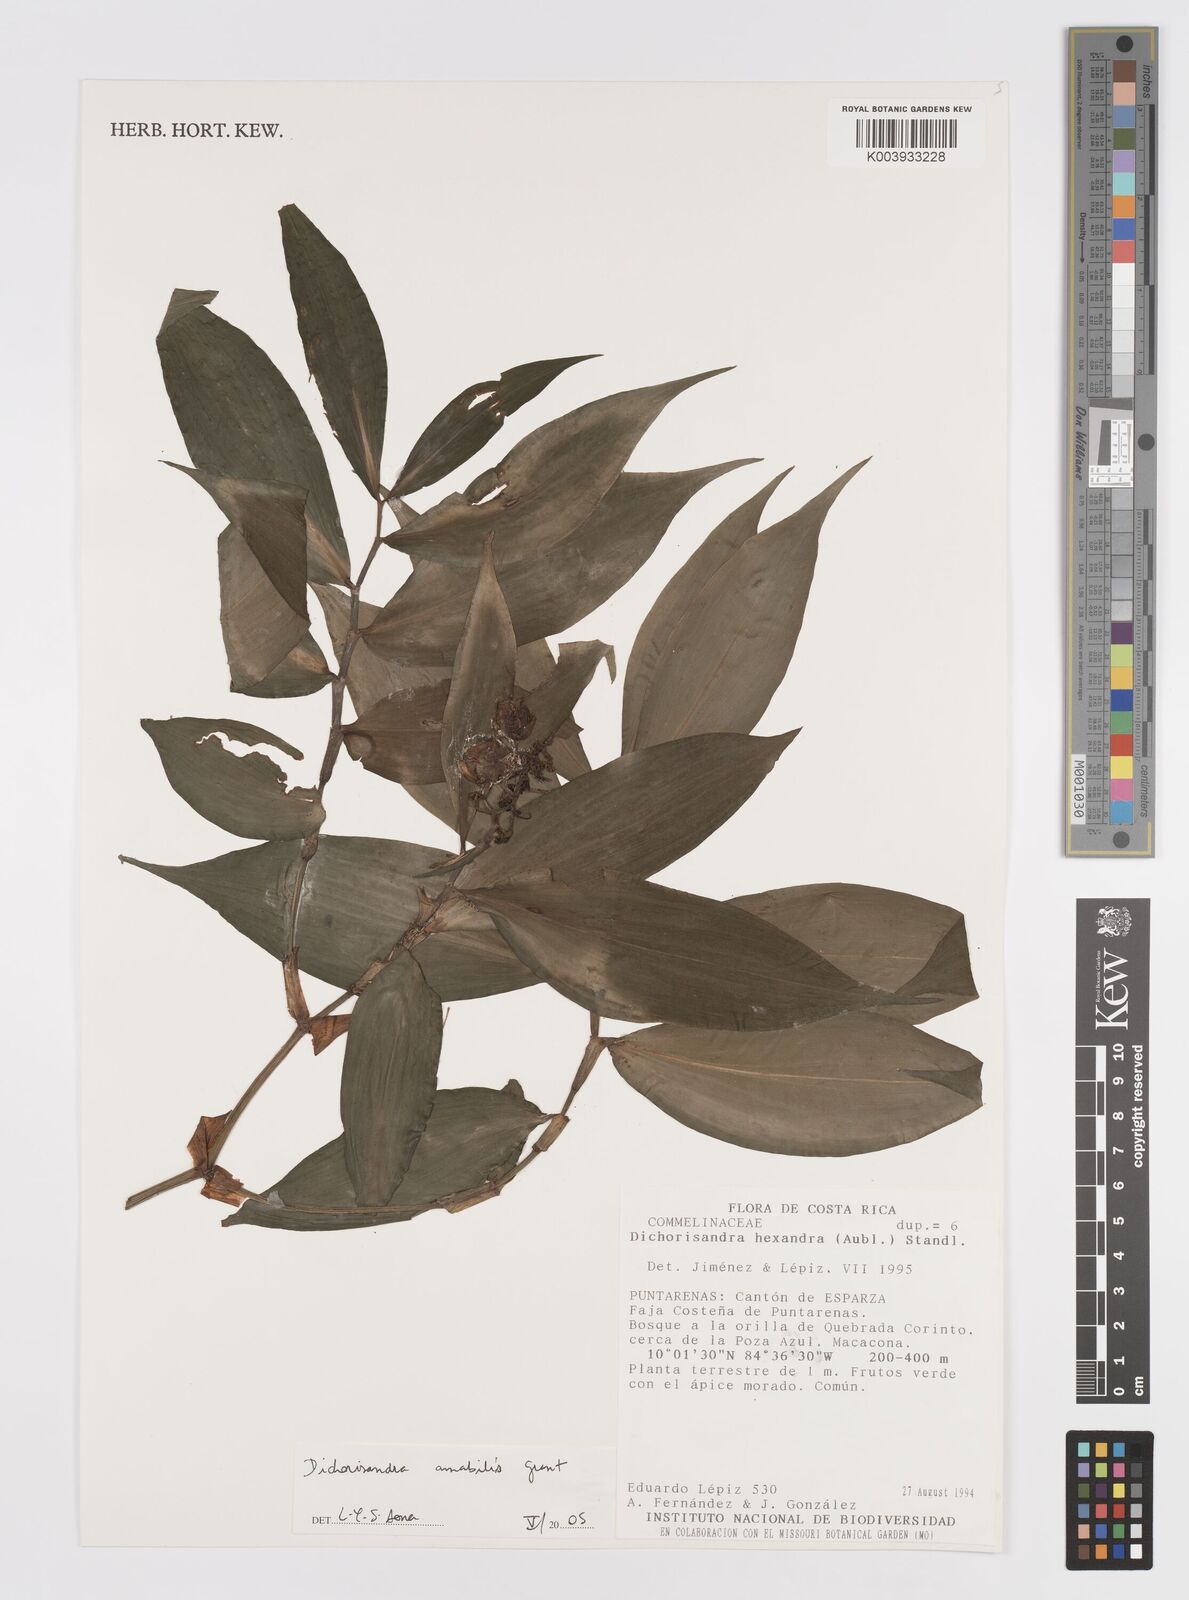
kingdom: Plantae
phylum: Tracheophyta
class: Liliopsida
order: Commelinales
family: Commelinaceae
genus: Dichorisandra
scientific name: Dichorisandra amabilis
